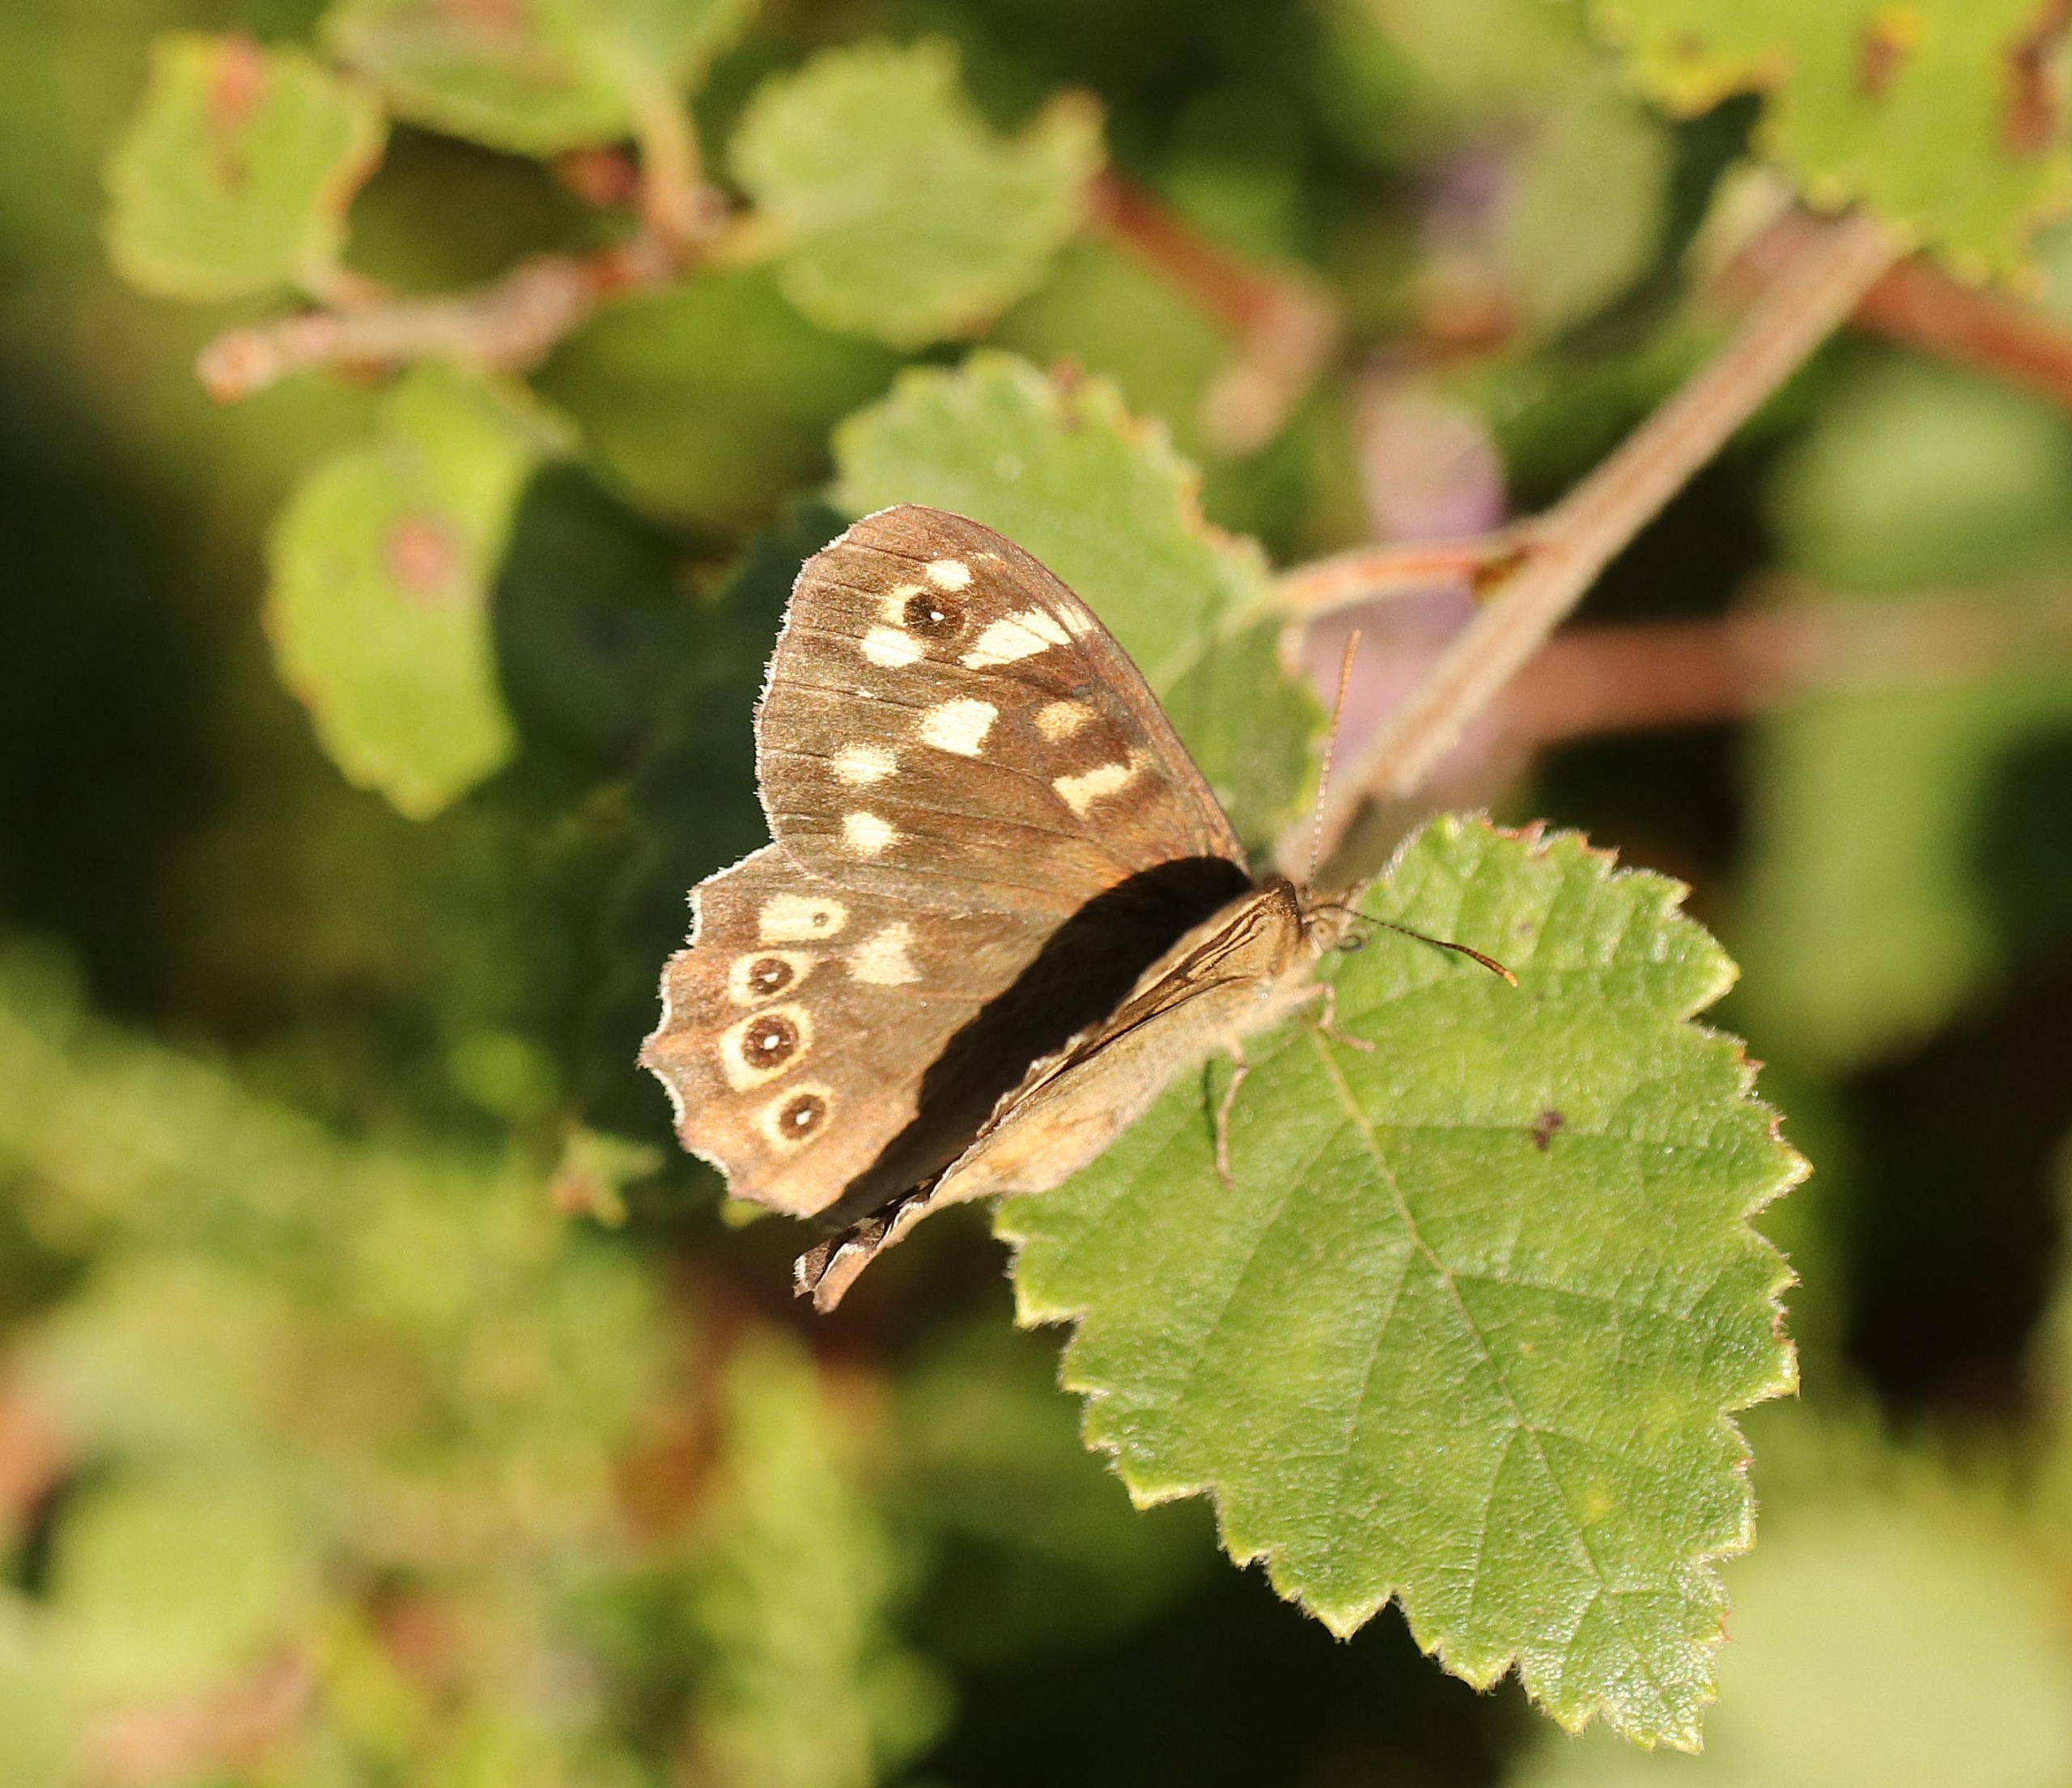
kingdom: Animalia
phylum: Arthropoda
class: Insecta
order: Lepidoptera
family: Nymphalidae
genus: Pararge
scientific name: Pararge aegeria
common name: Skovrandøje
